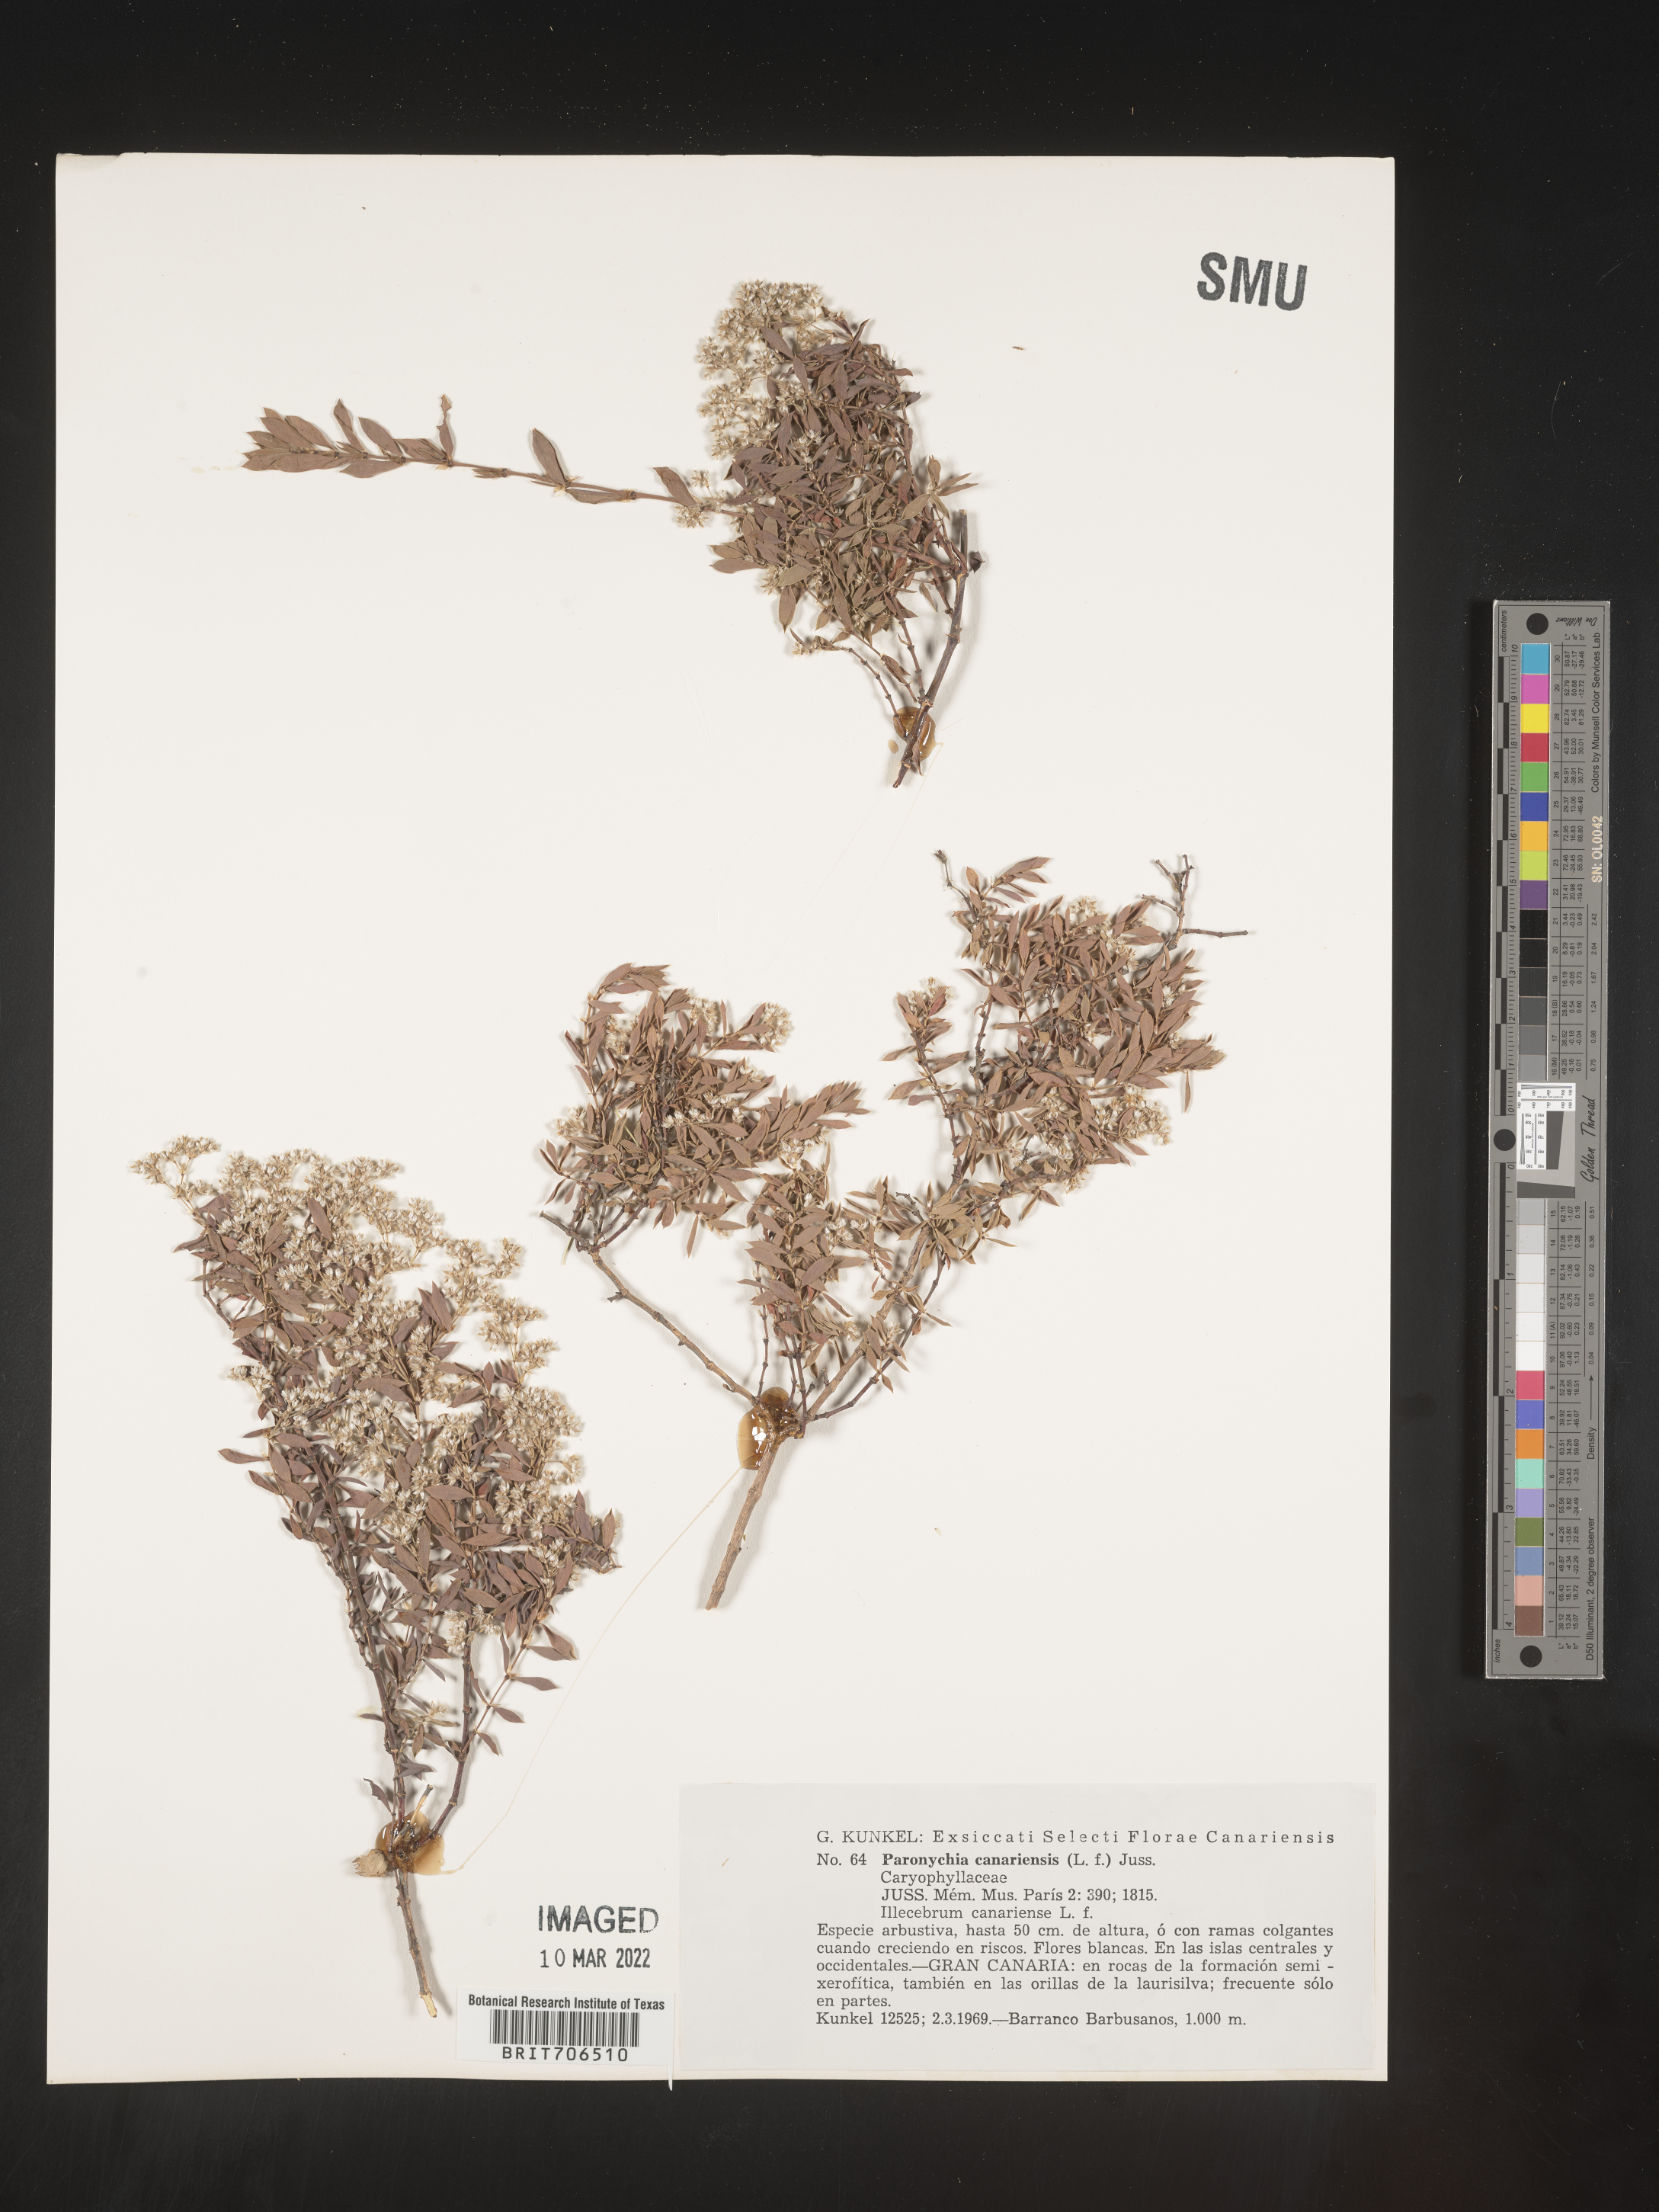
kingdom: Plantae
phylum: Tracheophyta
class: Magnoliopsida
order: Caryophyllales
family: Caryophyllaceae
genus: Paronychia
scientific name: Paronychia
